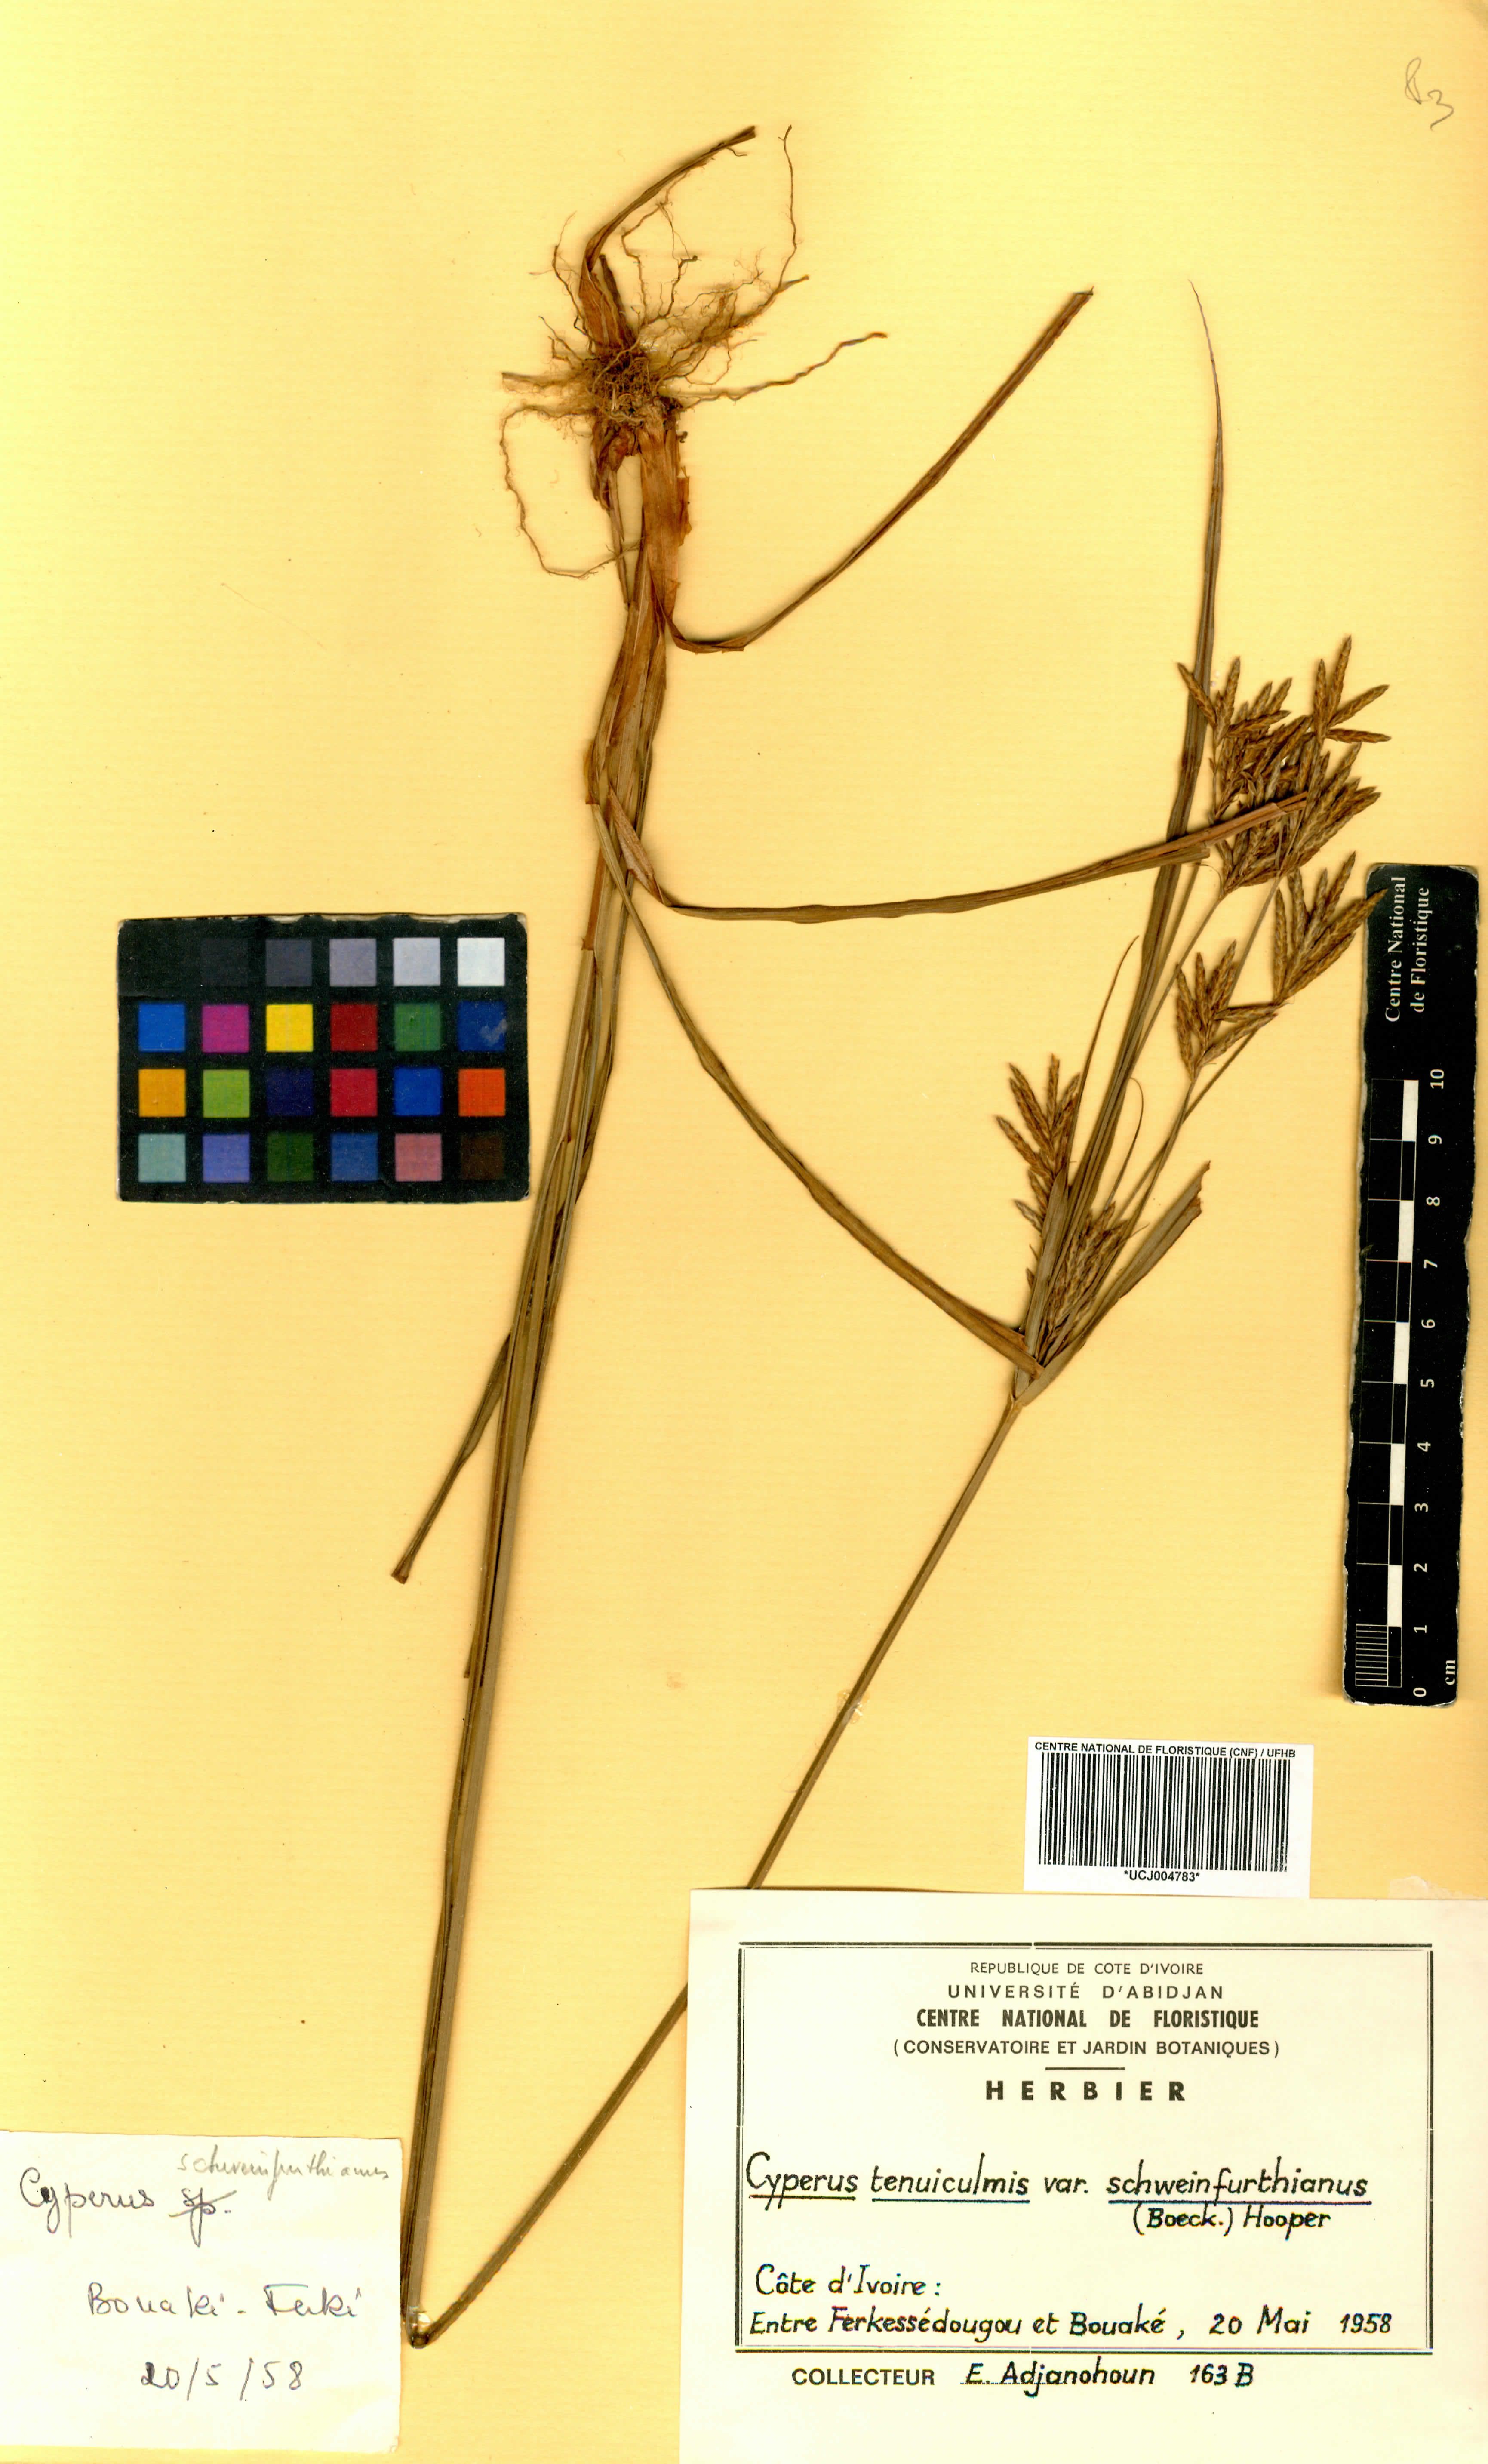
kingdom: Plantae
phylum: Tracheophyta
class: Liliopsida
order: Poales
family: Cyperaceae
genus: Cyperus
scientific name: Cyperus tenuiculmis
